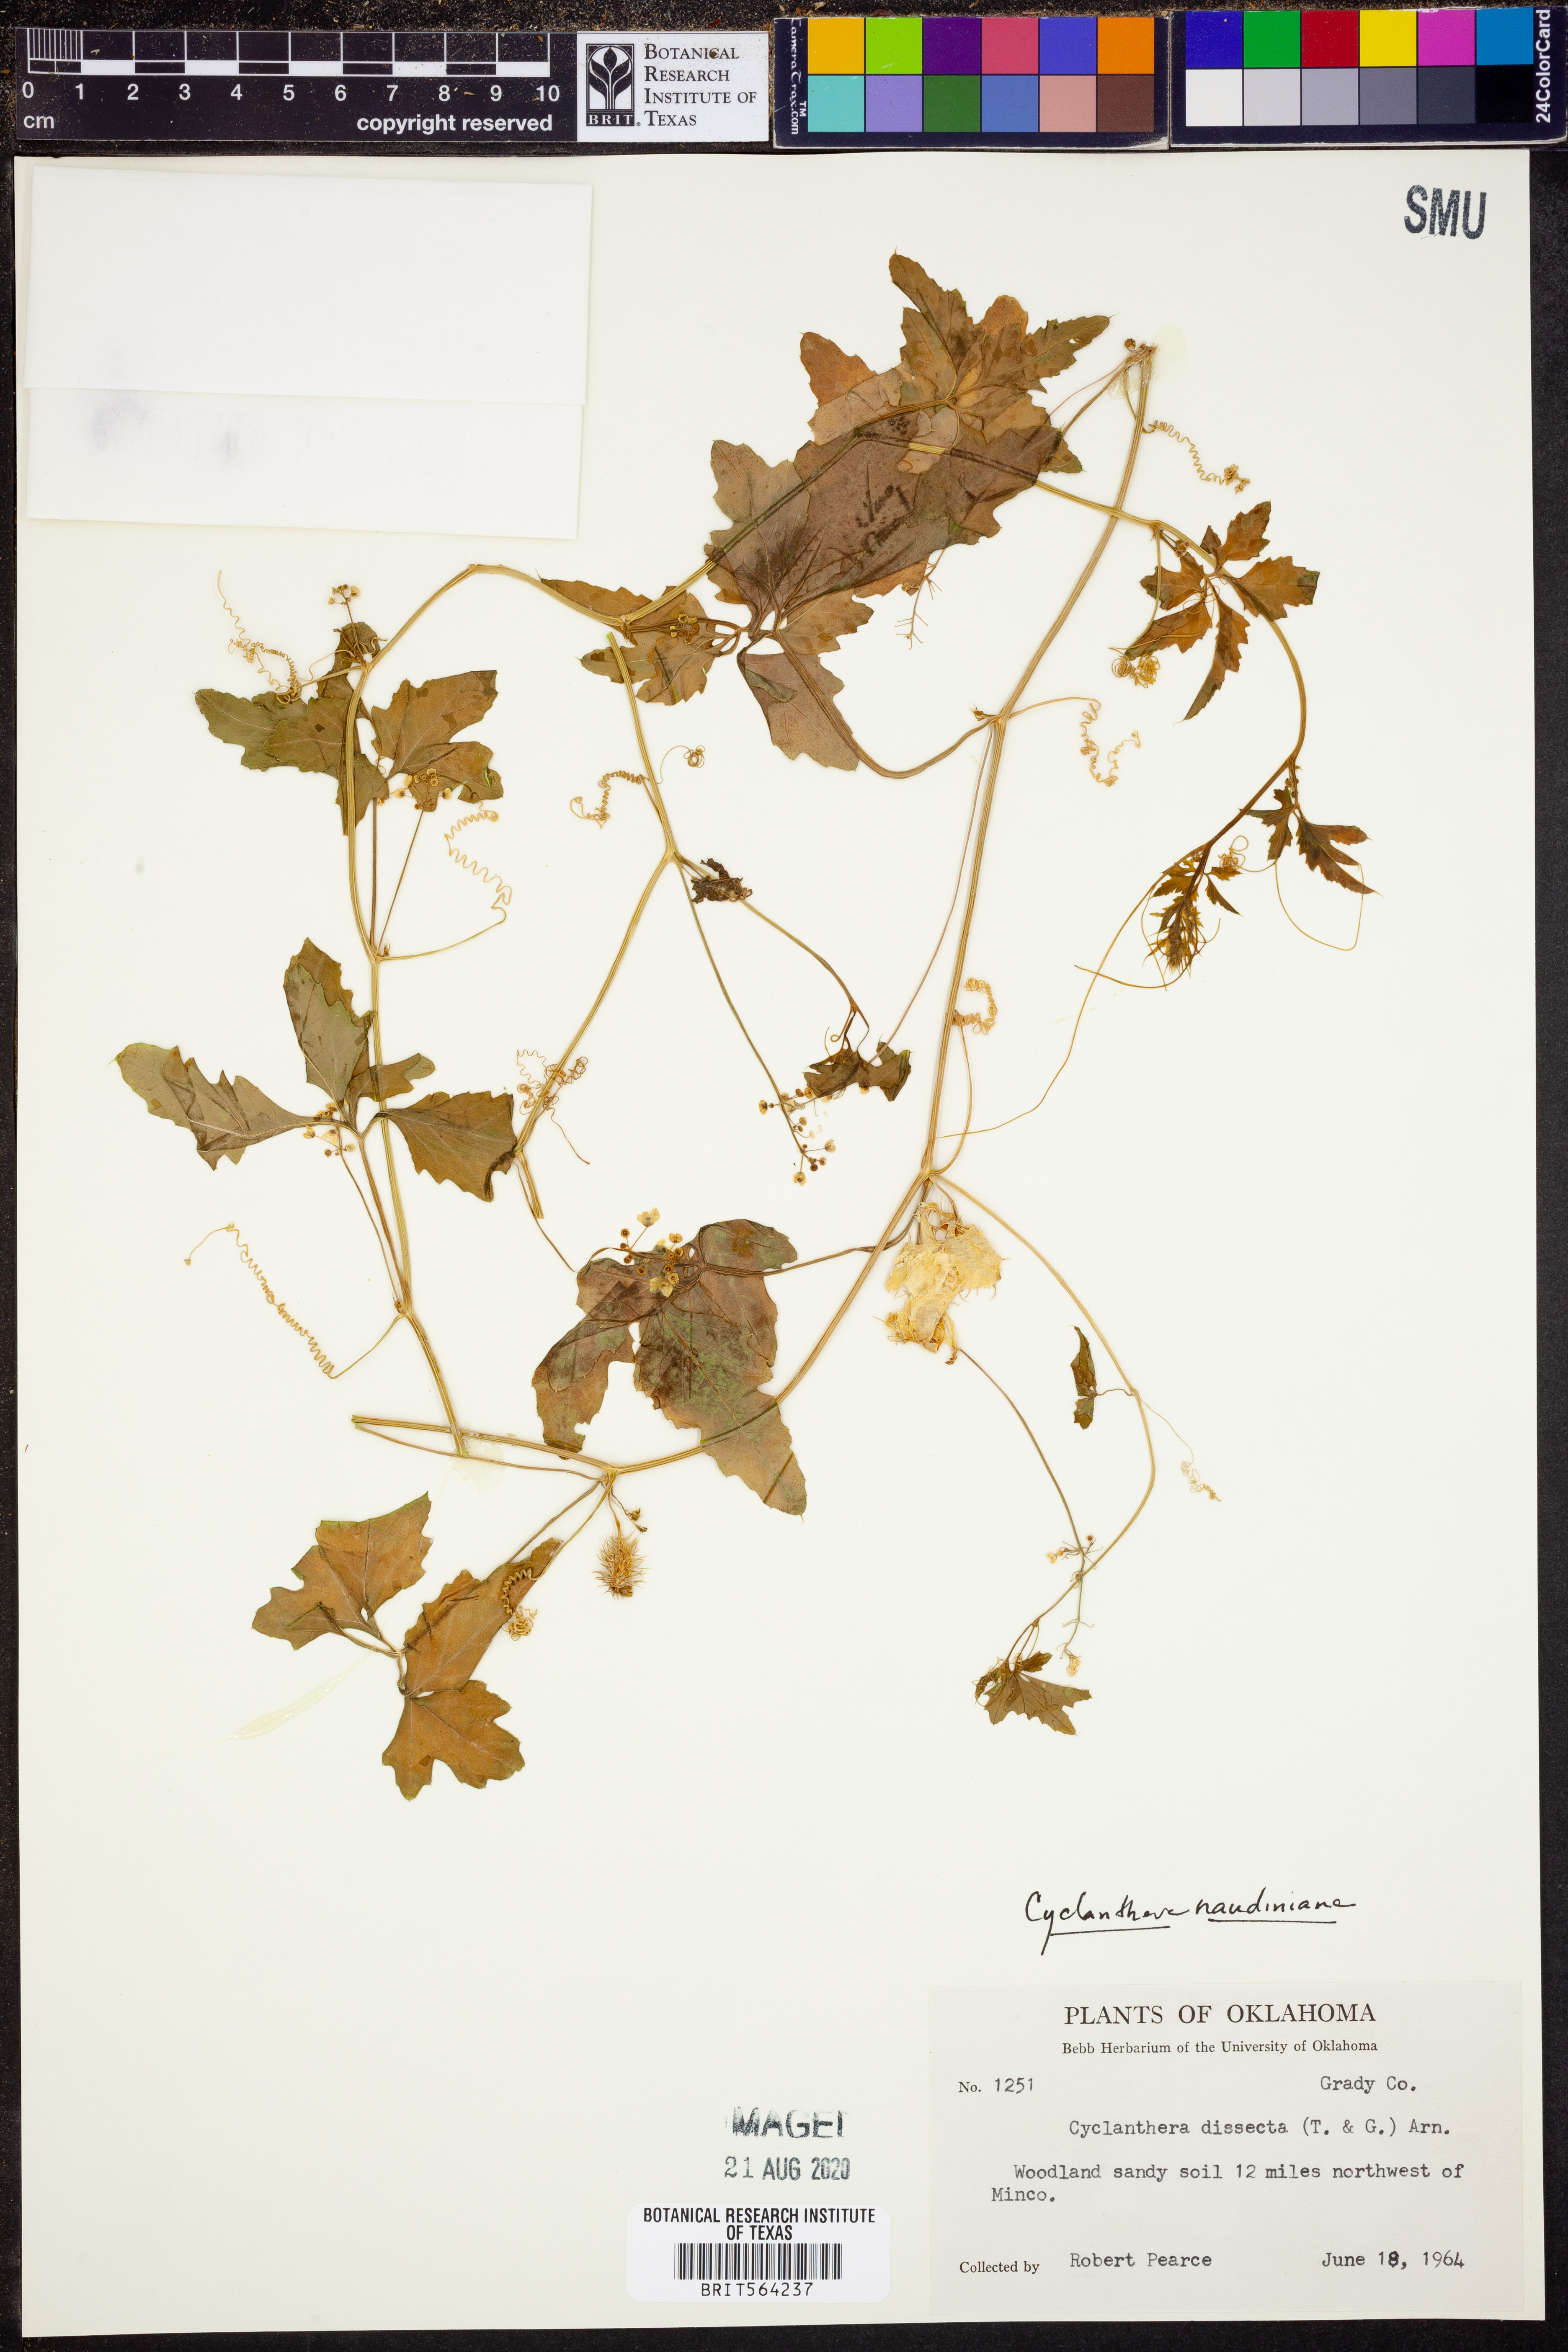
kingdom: Plantae
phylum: Tracheophyta
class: Magnoliopsida
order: Cucurbitales
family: Cucurbitaceae
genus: Cyclanthera
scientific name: Cyclanthera naudiniana
